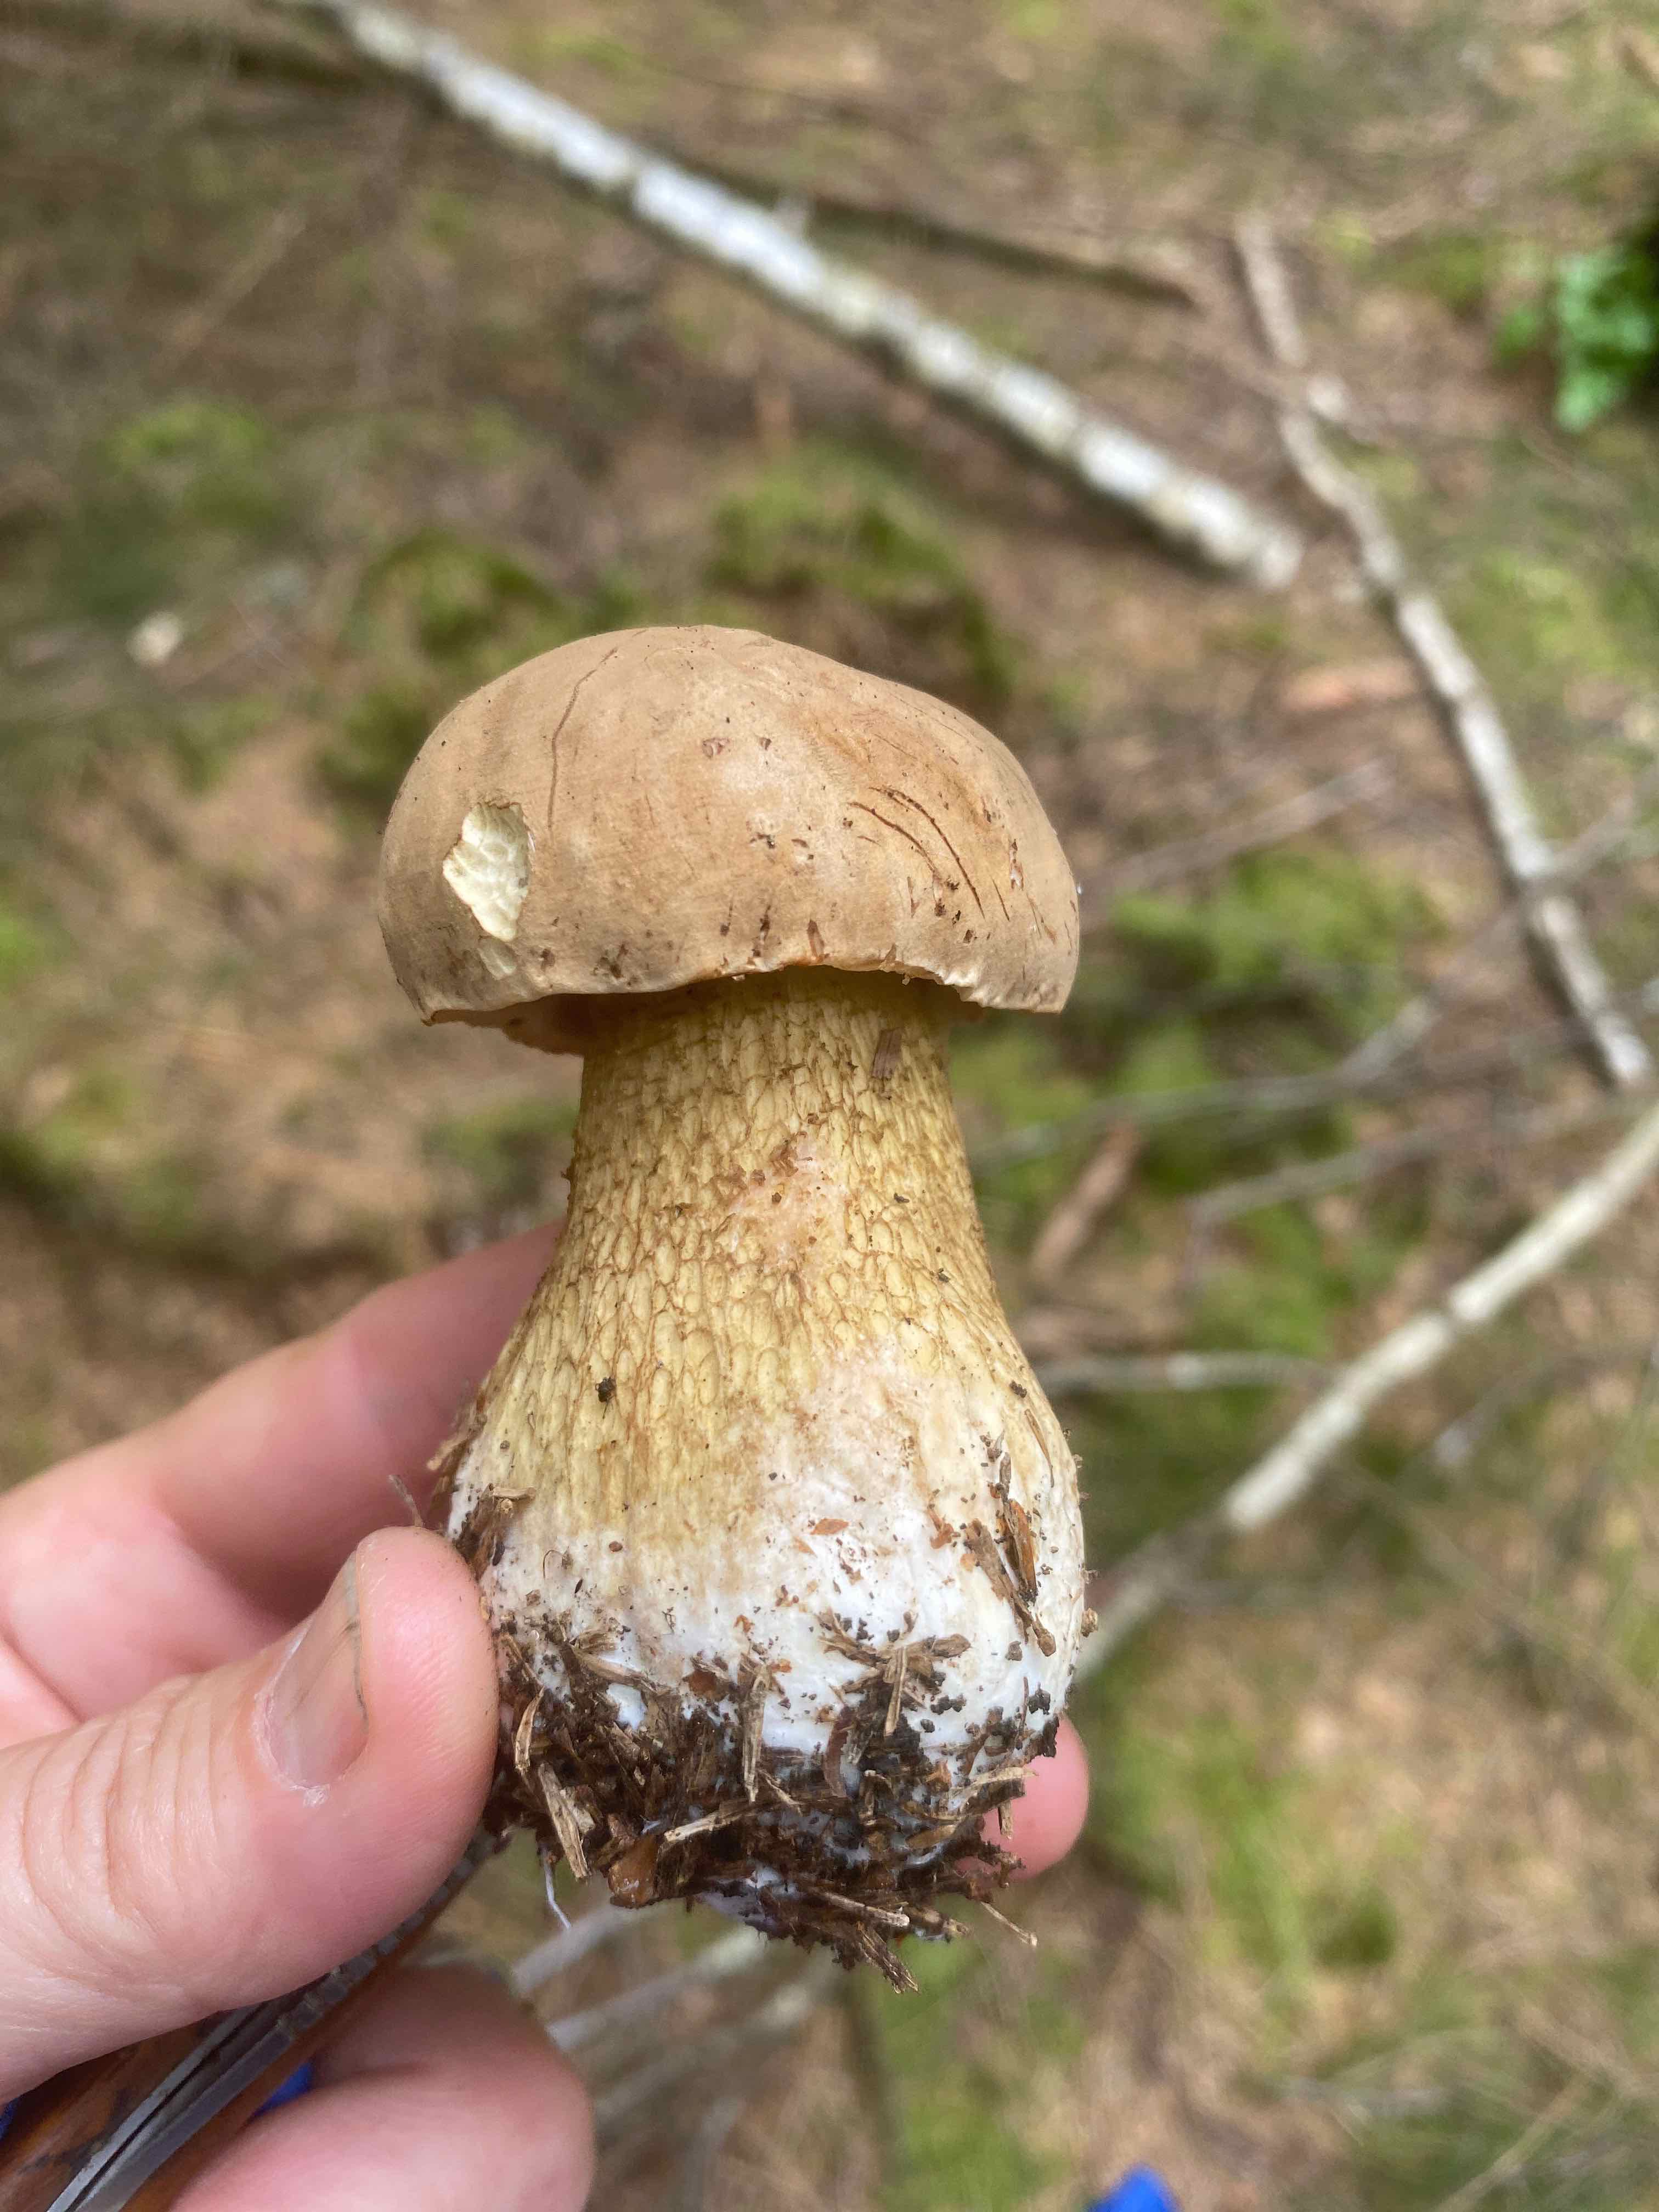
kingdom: Fungi
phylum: Basidiomycota
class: Agaricomycetes
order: Boletales
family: Boletaceae
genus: Tylopilus
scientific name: Tylopilus felleus
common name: galderørhat
